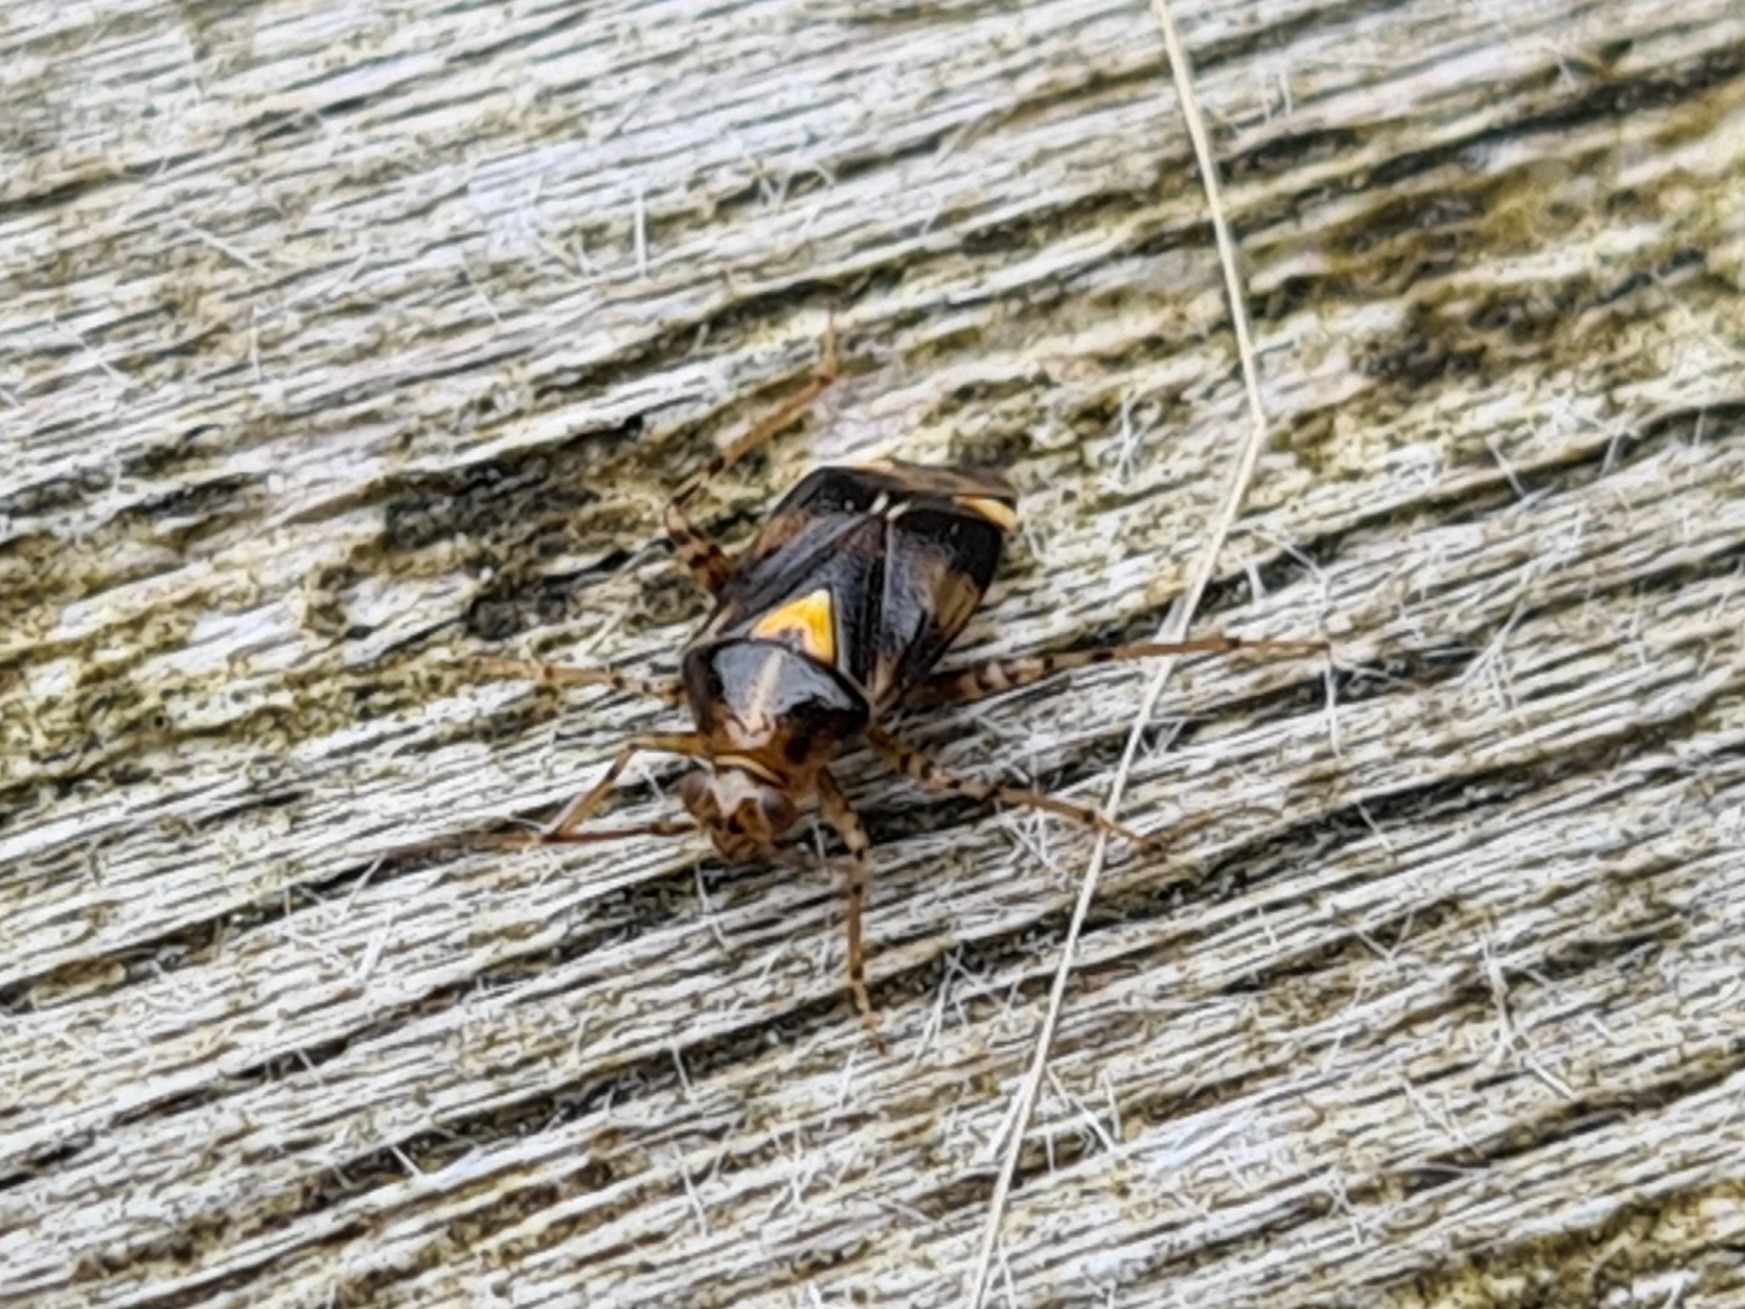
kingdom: Animalia
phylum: Arthropoda
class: Insecta
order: Hemiptera
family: Miridae
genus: Liocoris
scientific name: Liocoris tripustulatus
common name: Treplettet nældetæge
